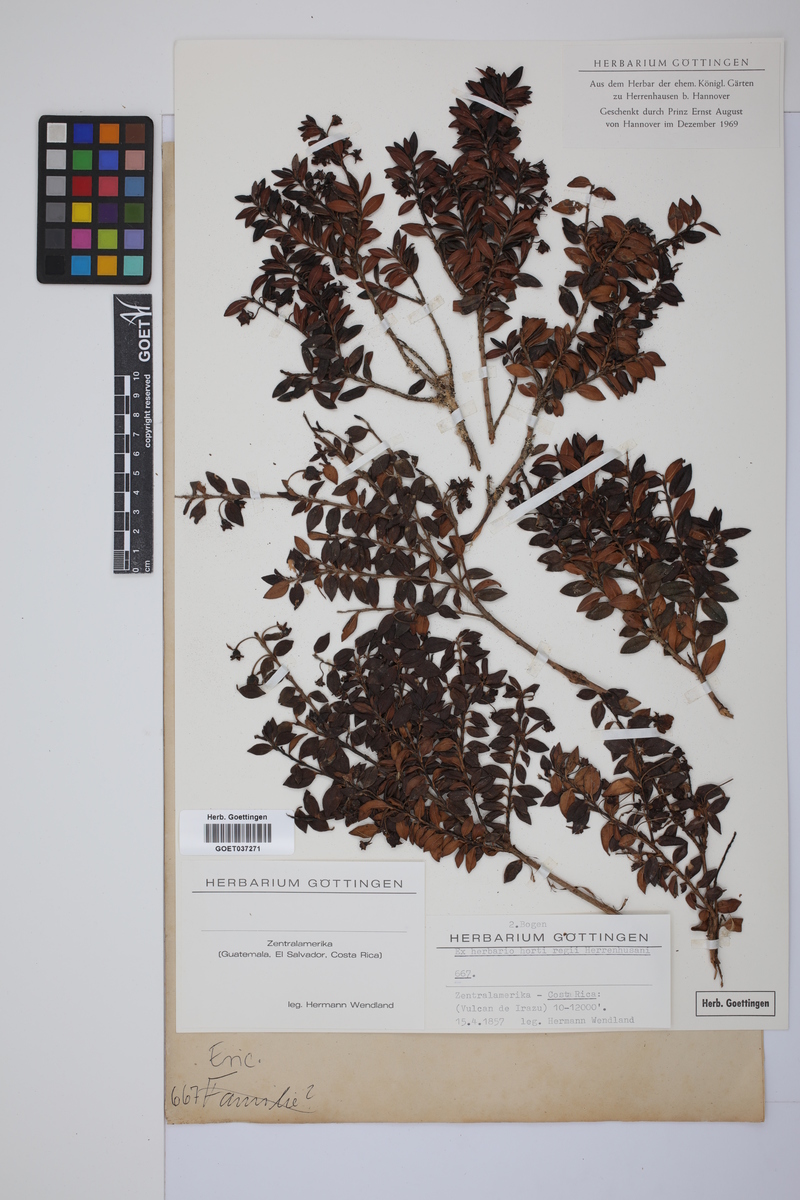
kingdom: Plantae
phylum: Tracheophyta
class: Magnoliopsida
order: Ericales
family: Ericaceae
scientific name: Ericaceae
